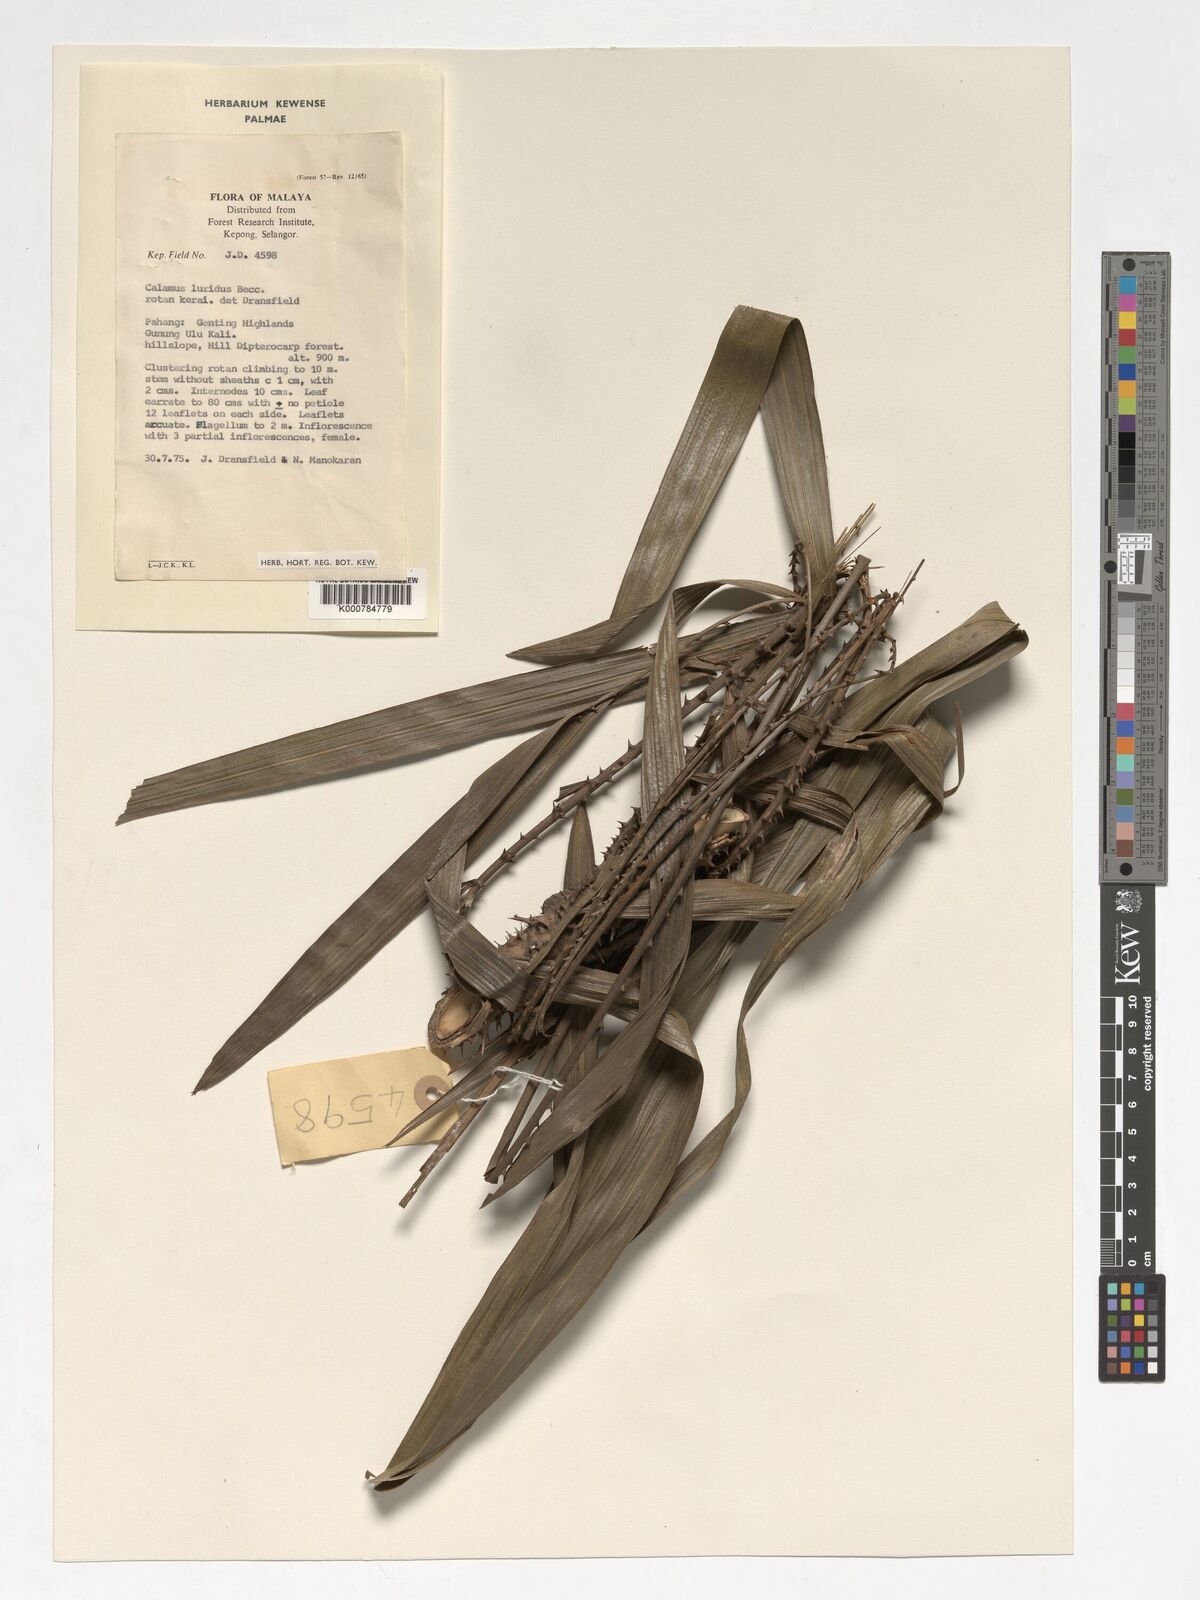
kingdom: Plantae
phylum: Tracheophyta
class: Liliopsida
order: Arecales
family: Arecaceae
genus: Calamus
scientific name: Calamus micranthus
